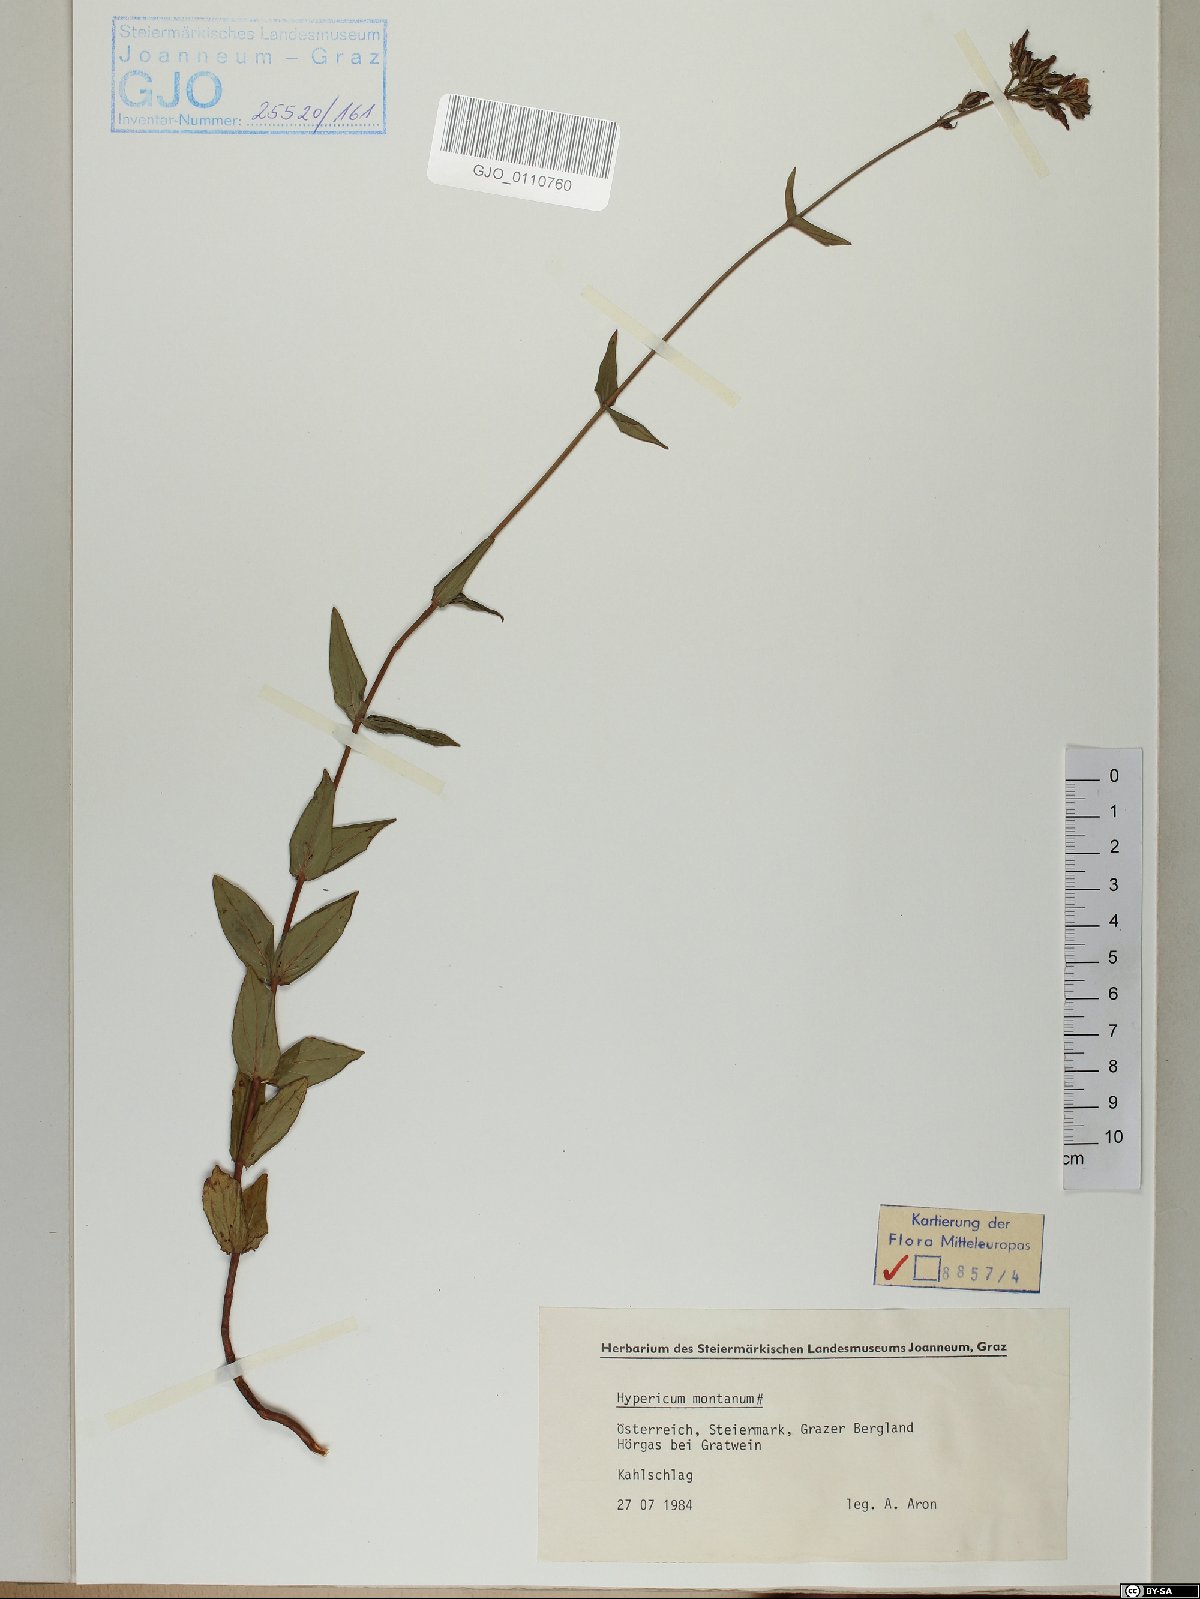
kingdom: Plantae
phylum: Tracheophyta
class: Magnoliopsida
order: Malpighiales
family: Hypericaceae
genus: Hypericum
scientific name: Hypericum montanum
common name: Pale st. john's-wort
